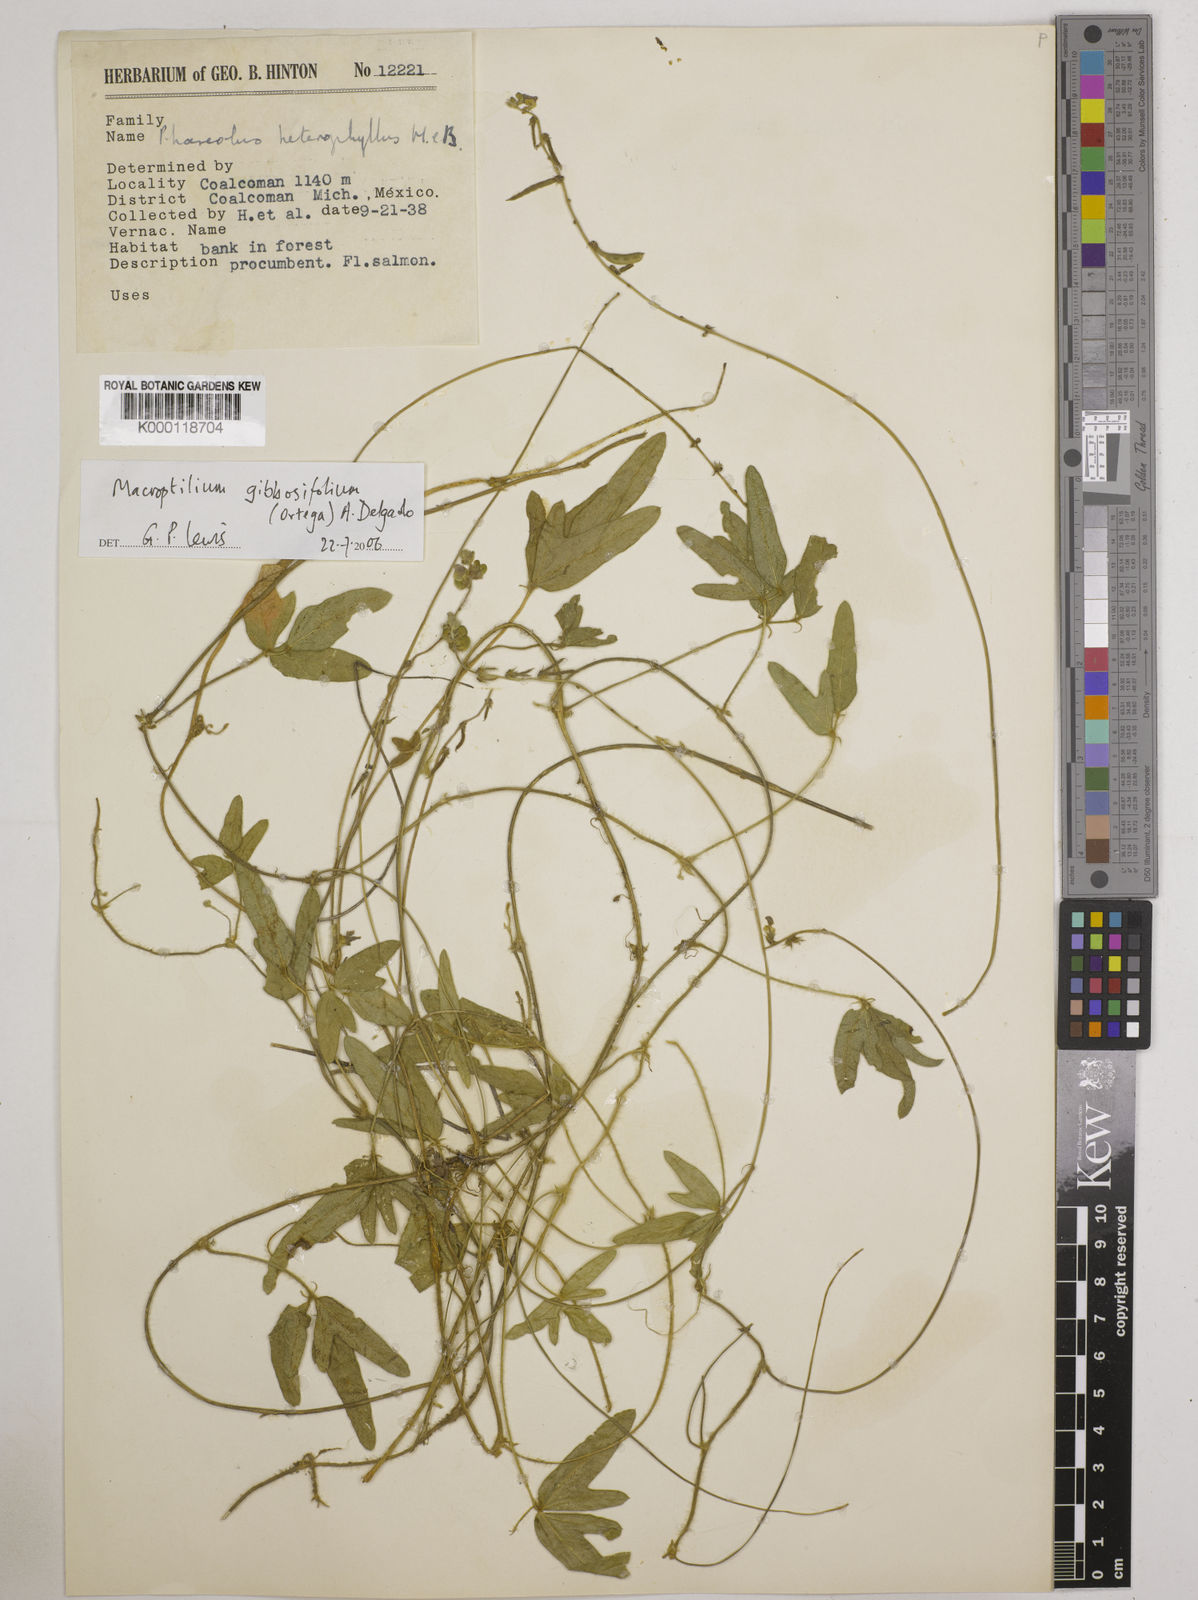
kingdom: Plantae
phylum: Tracheophyta
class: Magnoliopsida
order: Fabales
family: Fabaceae
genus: Macroptilium
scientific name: Macroptilium gibbosifolium
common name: Variableleaf bushbean
